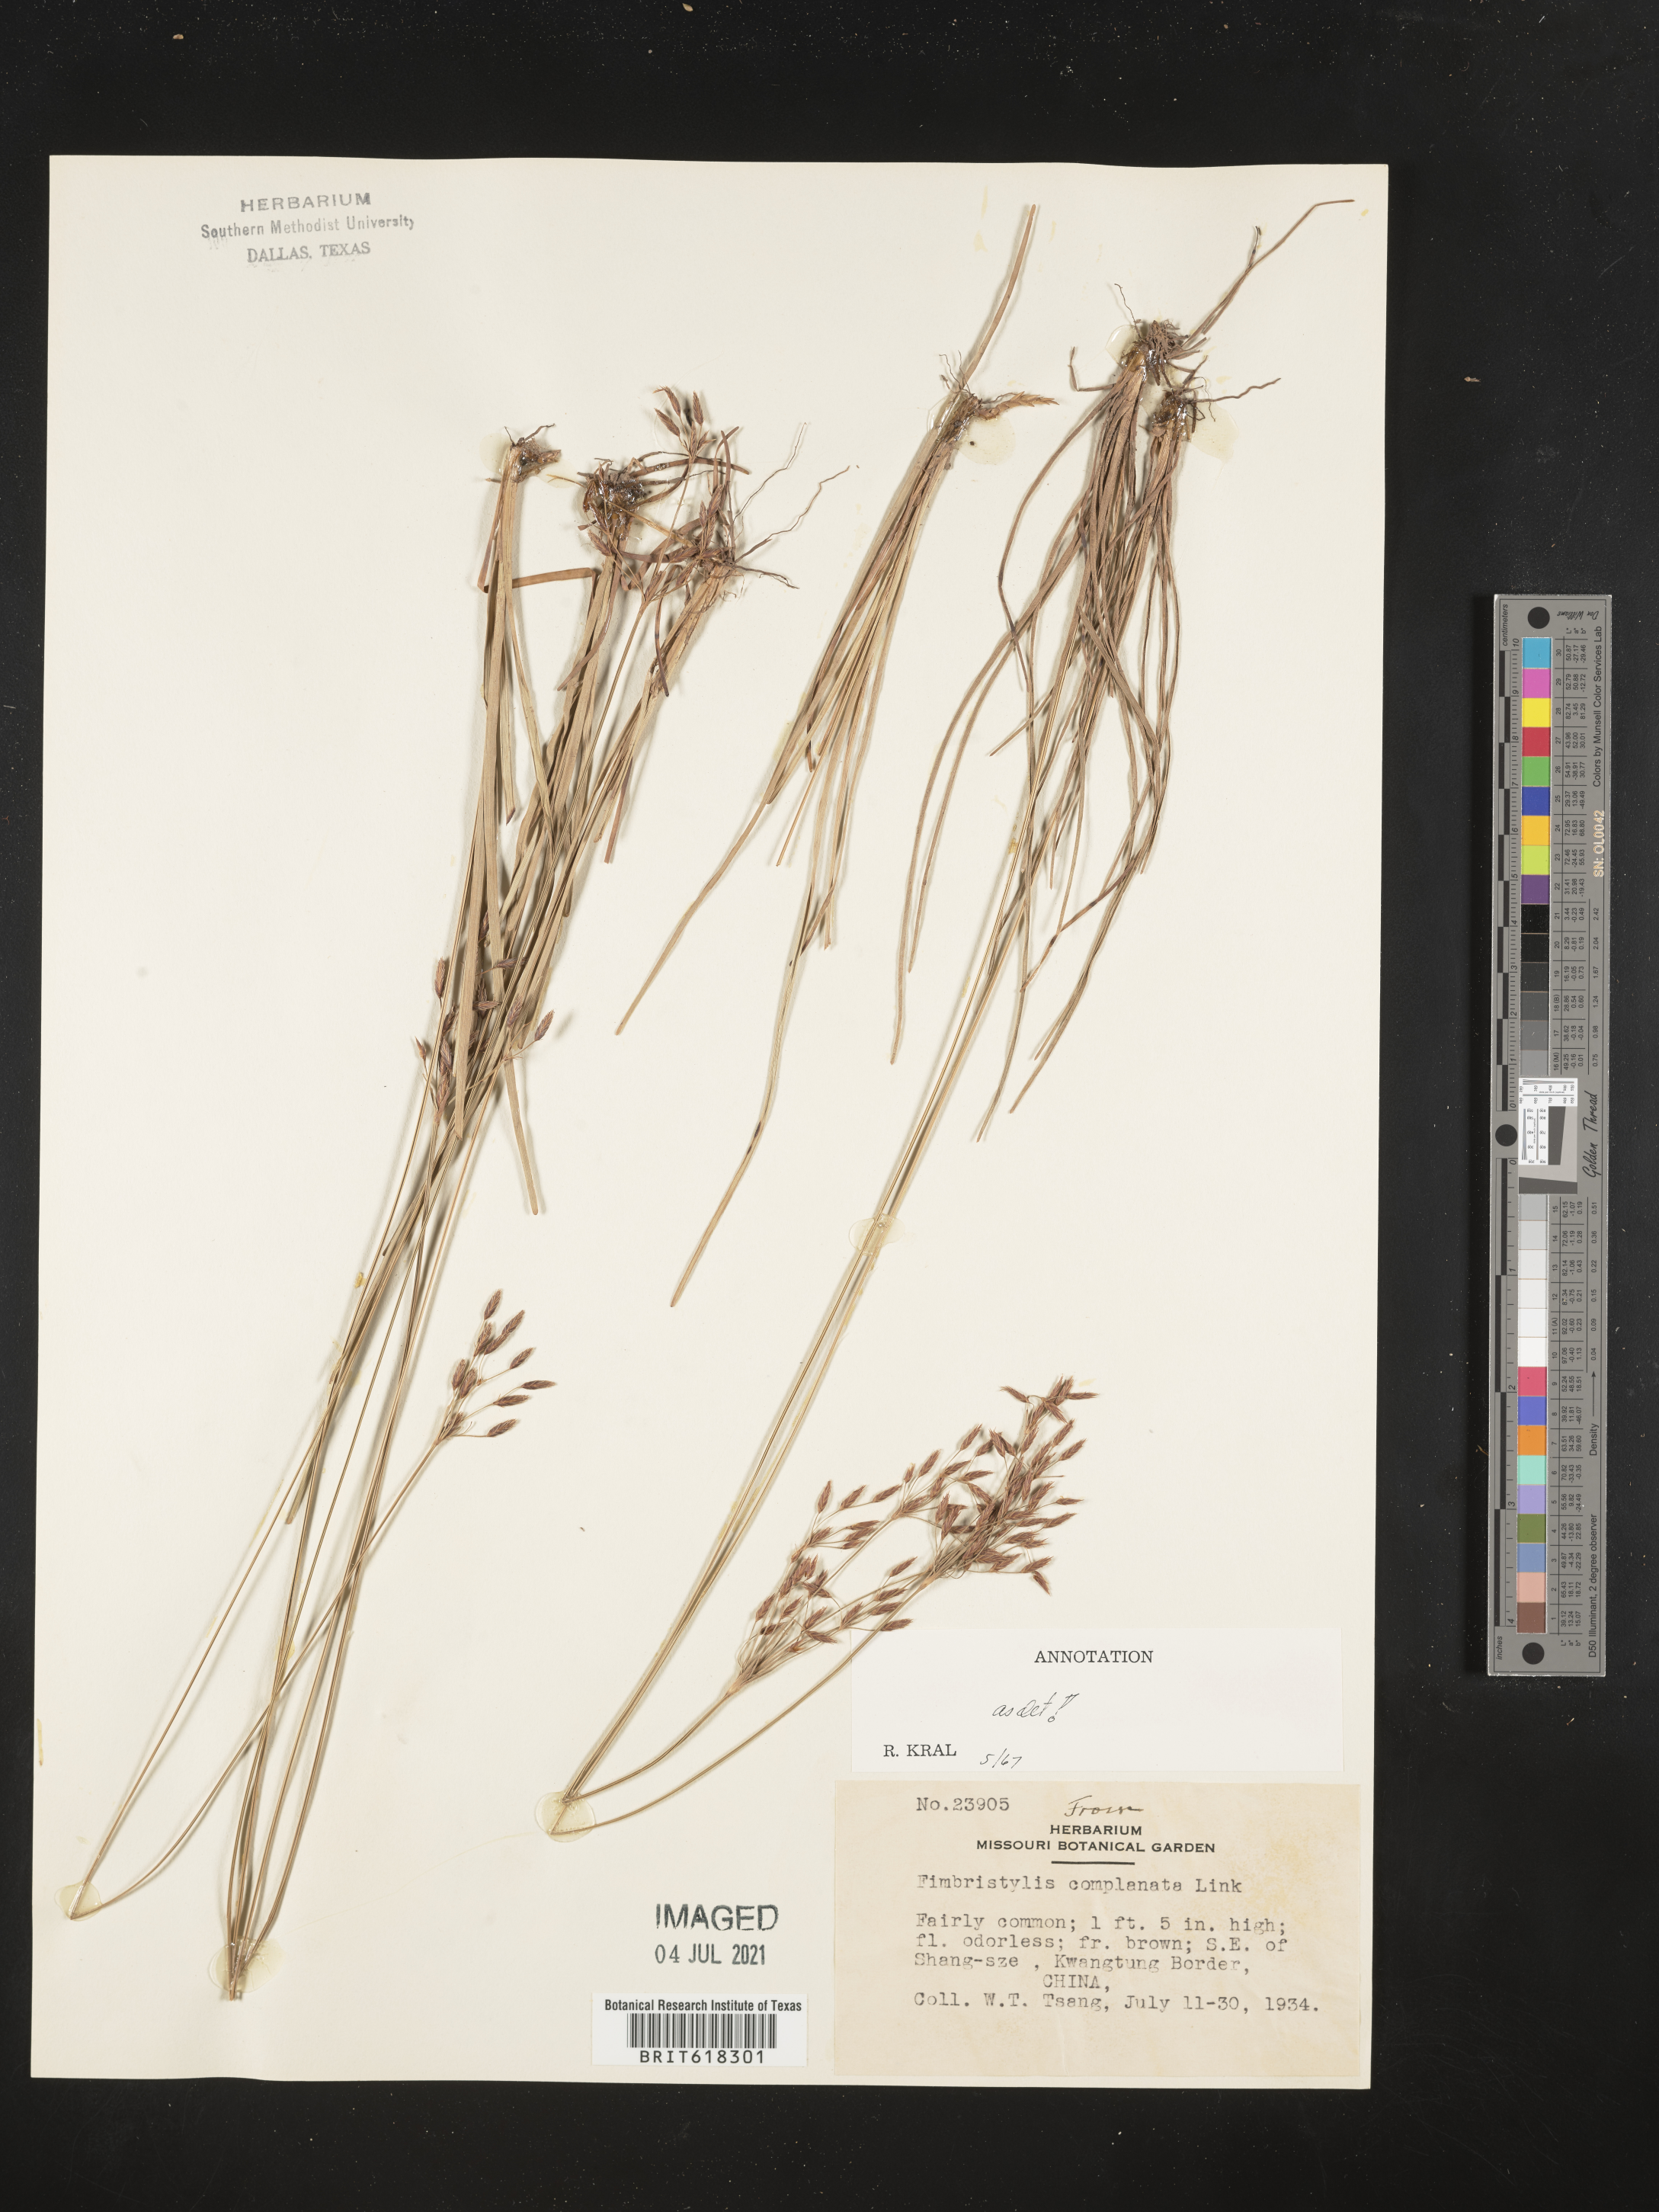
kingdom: Plantae
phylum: Tracheophyta
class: Liliopsida
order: Poales
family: Cyperaceae
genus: Fimbristylis
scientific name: Fimbristylis complanata
